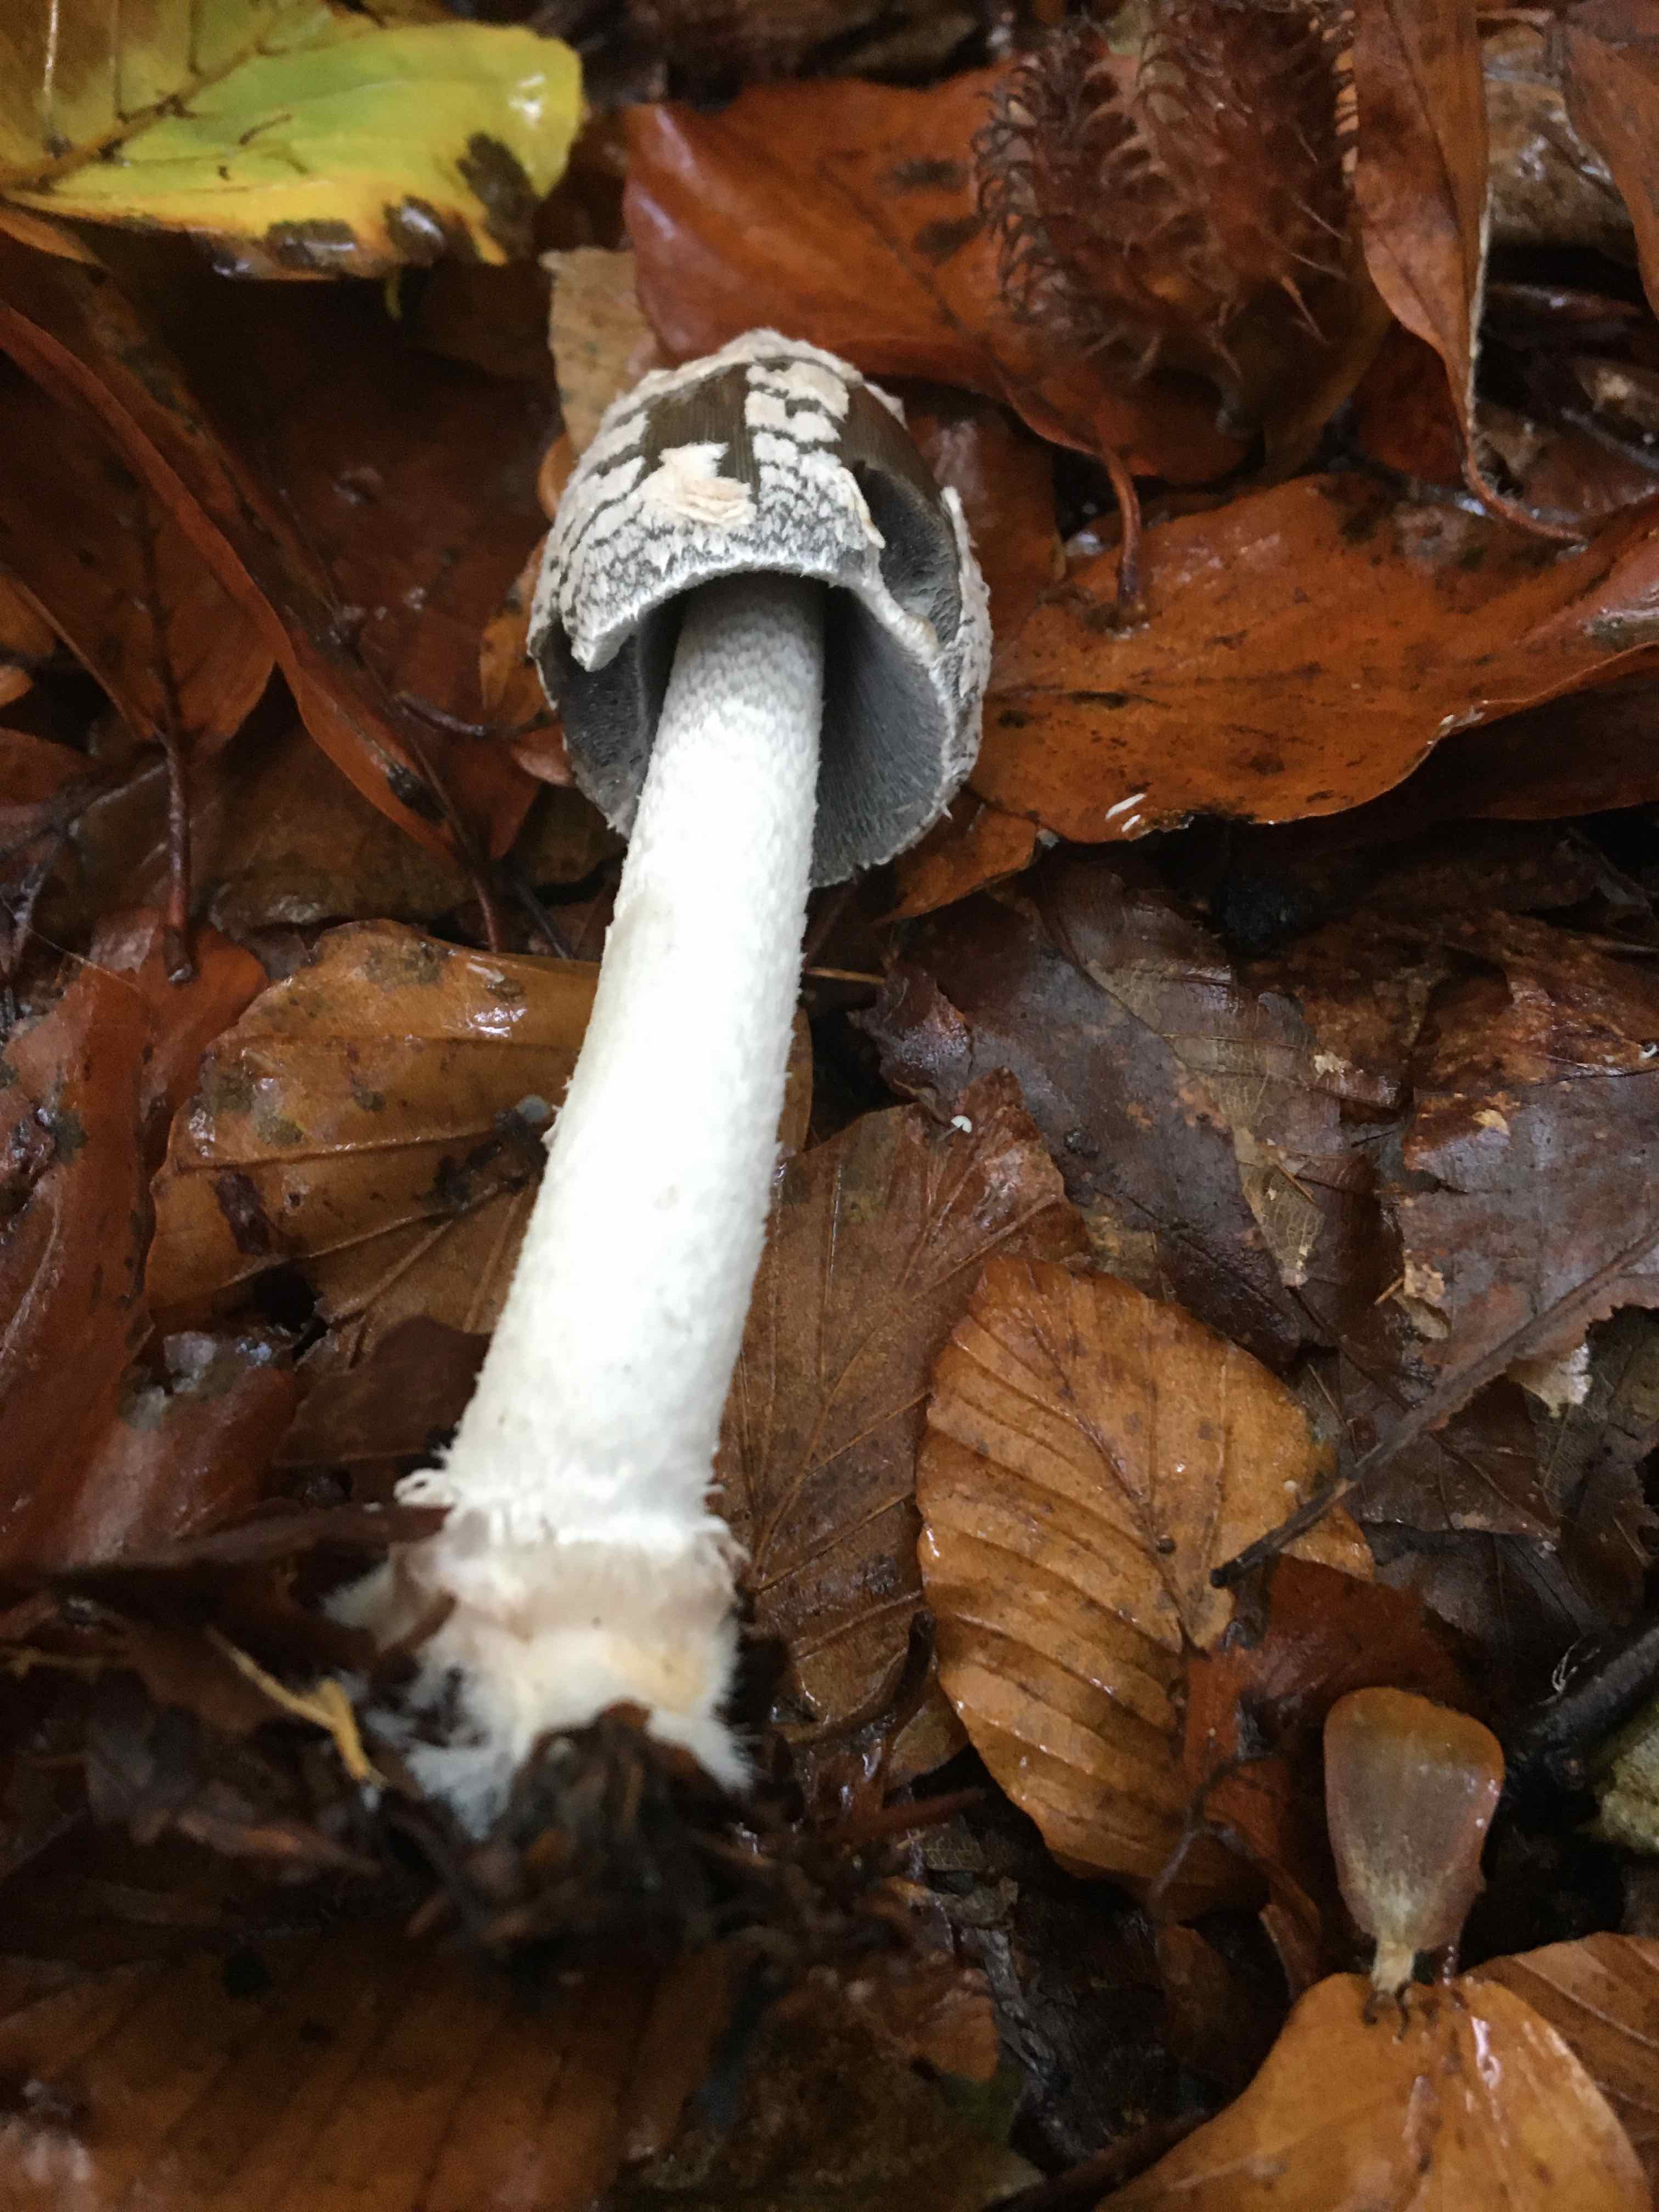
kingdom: Fungi
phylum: Basidiomycota
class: Agaricomycetes
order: Agaricales
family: Psathyrellaceae
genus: Coprinopsis
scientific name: Coprinopsis picacea
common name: skade-blækhat
